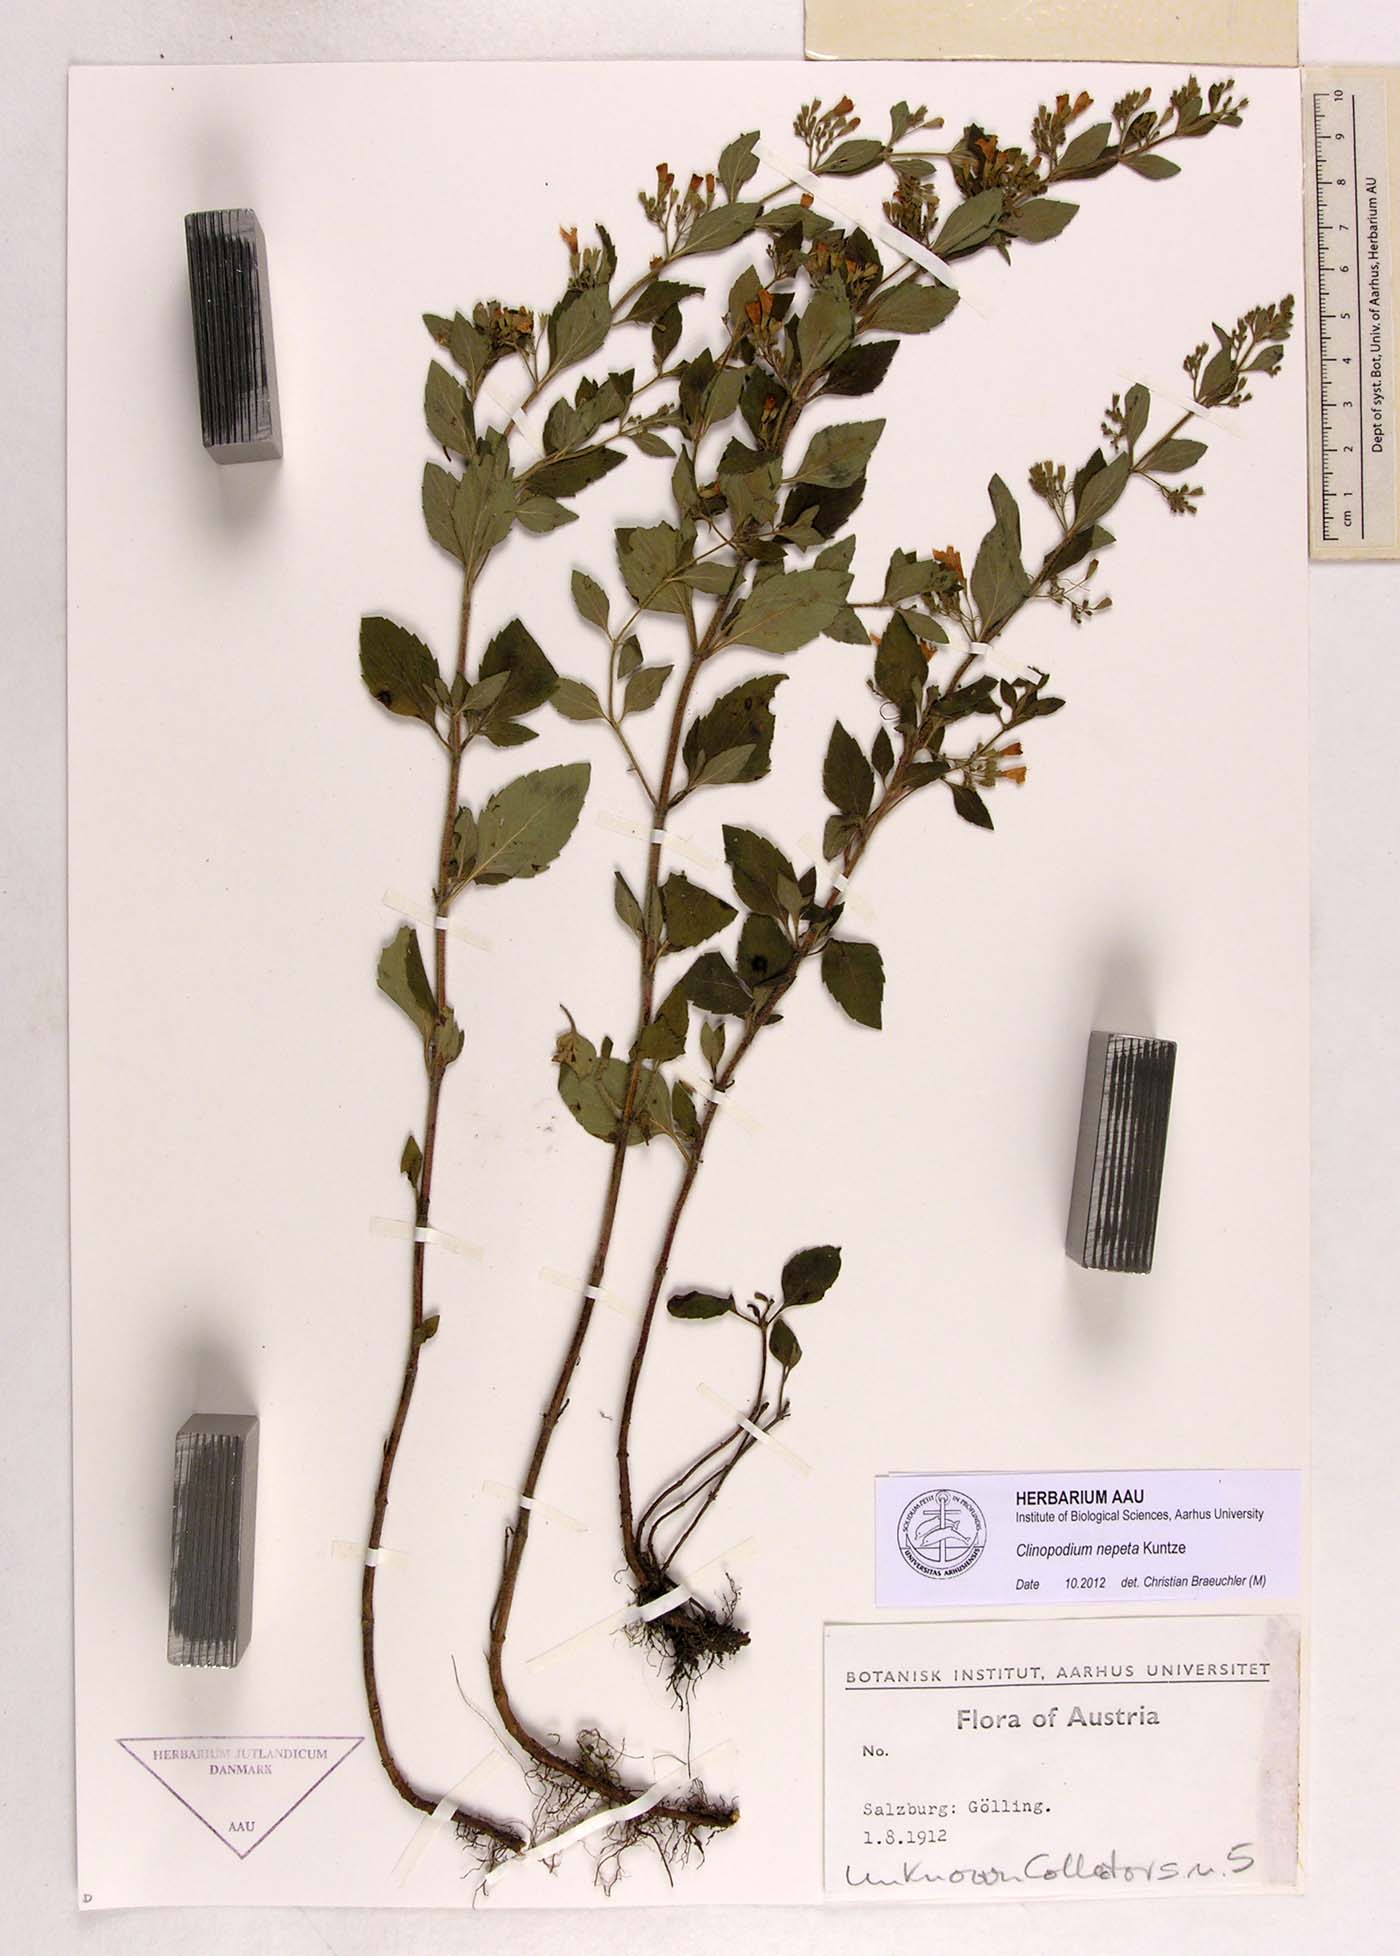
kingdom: Plantae
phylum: Tracheophyta
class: Magnoliopsida
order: Lamiales
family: Lamiaceae
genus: Clinopodium
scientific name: Clinopodium nepeta
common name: Lesser calamint
